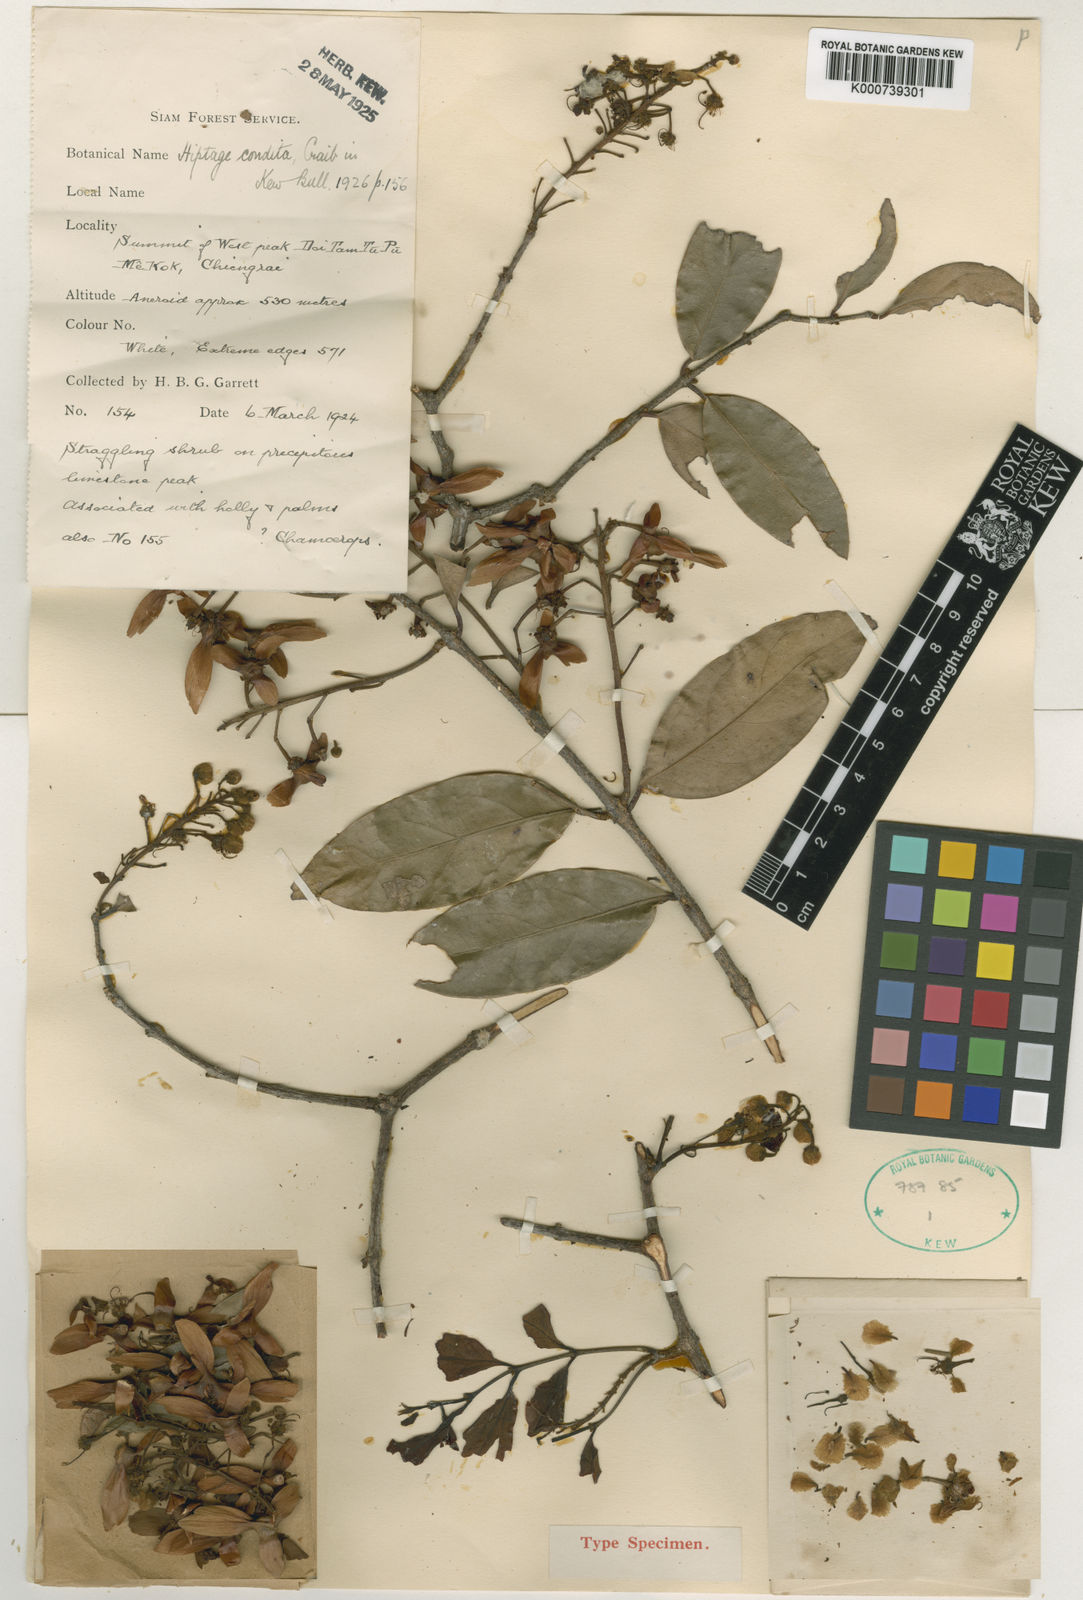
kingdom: Plantae
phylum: Tracheophyta
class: Magnoliopsida
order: Malpighiales
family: Malpighiaceae
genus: Hiptage
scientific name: Hiptage condita
